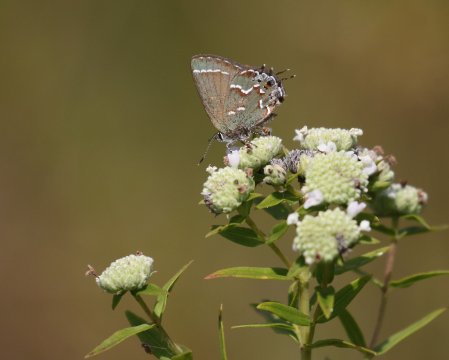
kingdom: Animalia
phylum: Arthropoda
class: Insecta
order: Lepidoptera
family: Lycaenidae
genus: Mitoura
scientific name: Mitoura gryneus
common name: Juniper Hairstreak
